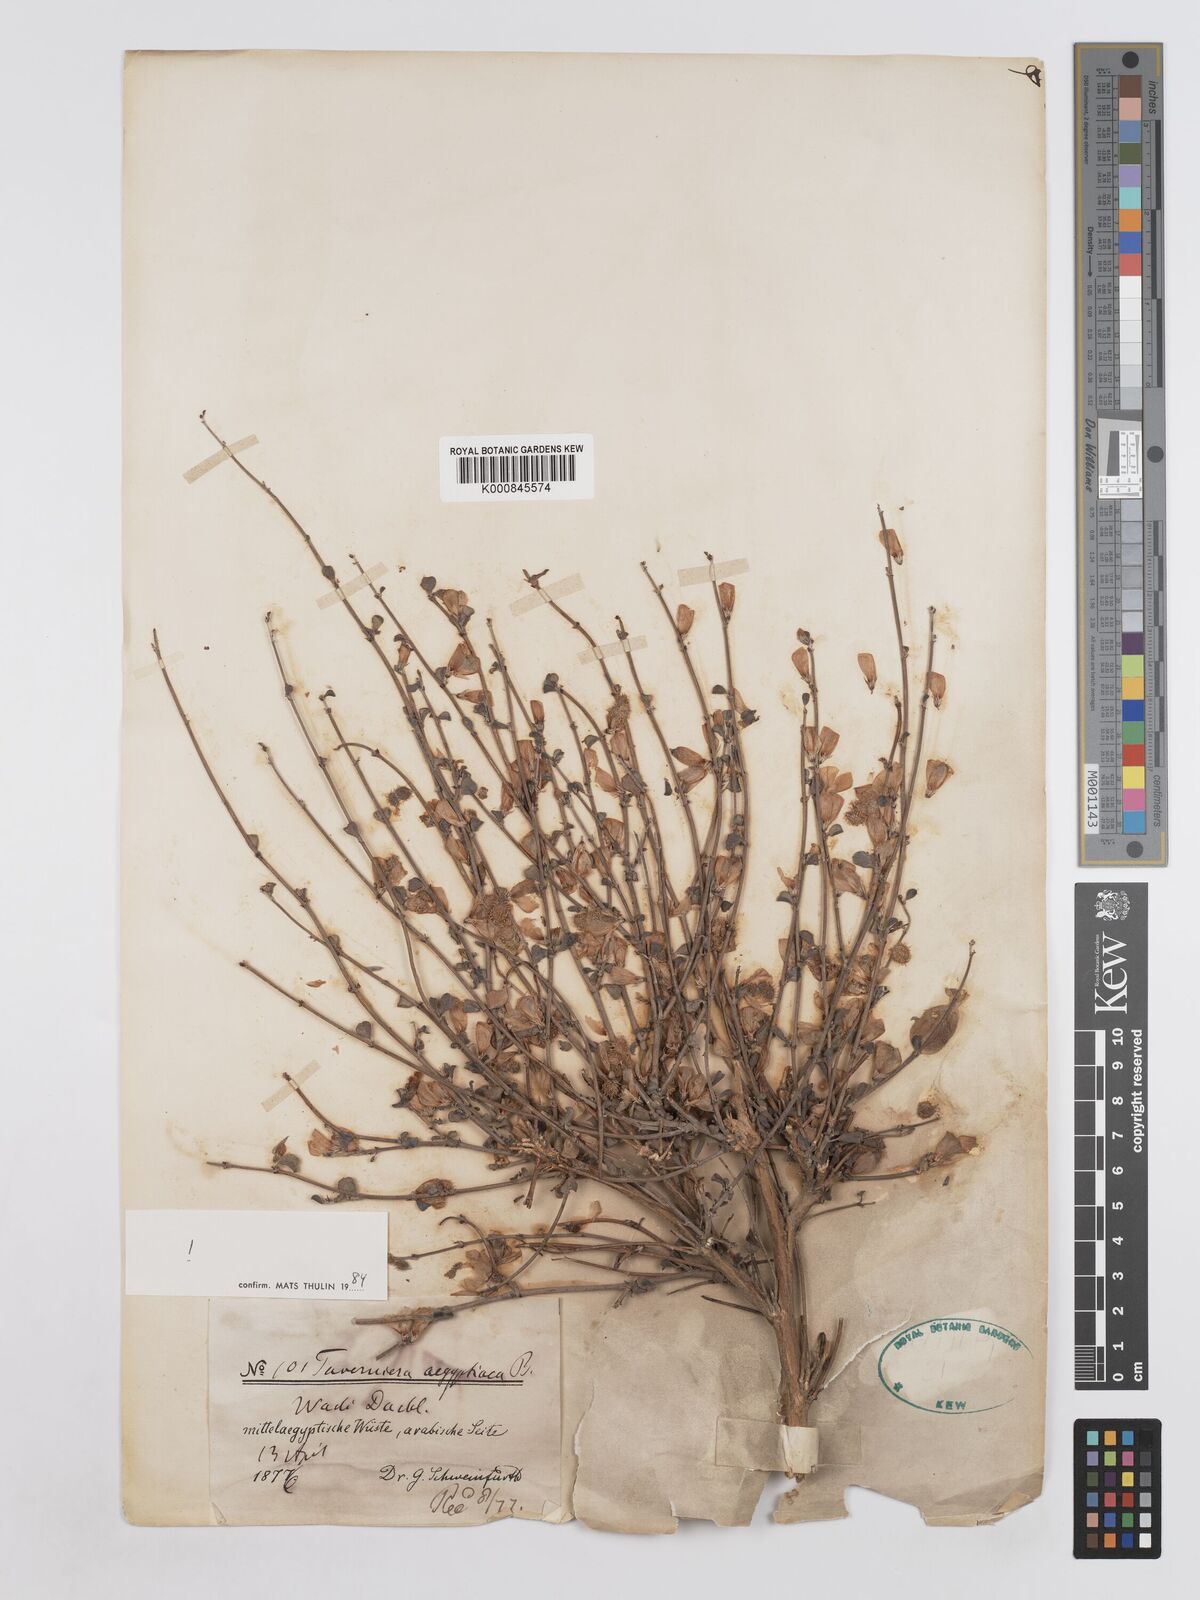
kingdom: Plantae
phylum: Tracheophyta
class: Magnoliopsida
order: Fabales
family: Fabaceae
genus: Taverniera
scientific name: Taverniera aegyptiaca
